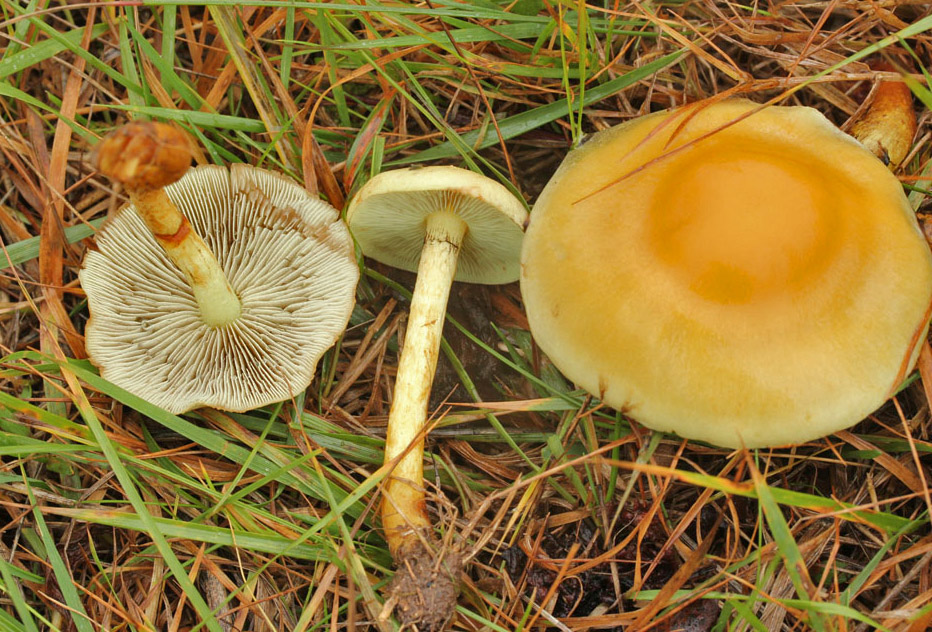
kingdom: Fungi
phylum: Basidiomycota
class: Agaricomycetes
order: Agaricales
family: Strophariaceae
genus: Hypholoma
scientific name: Hypholoma fasciculare
